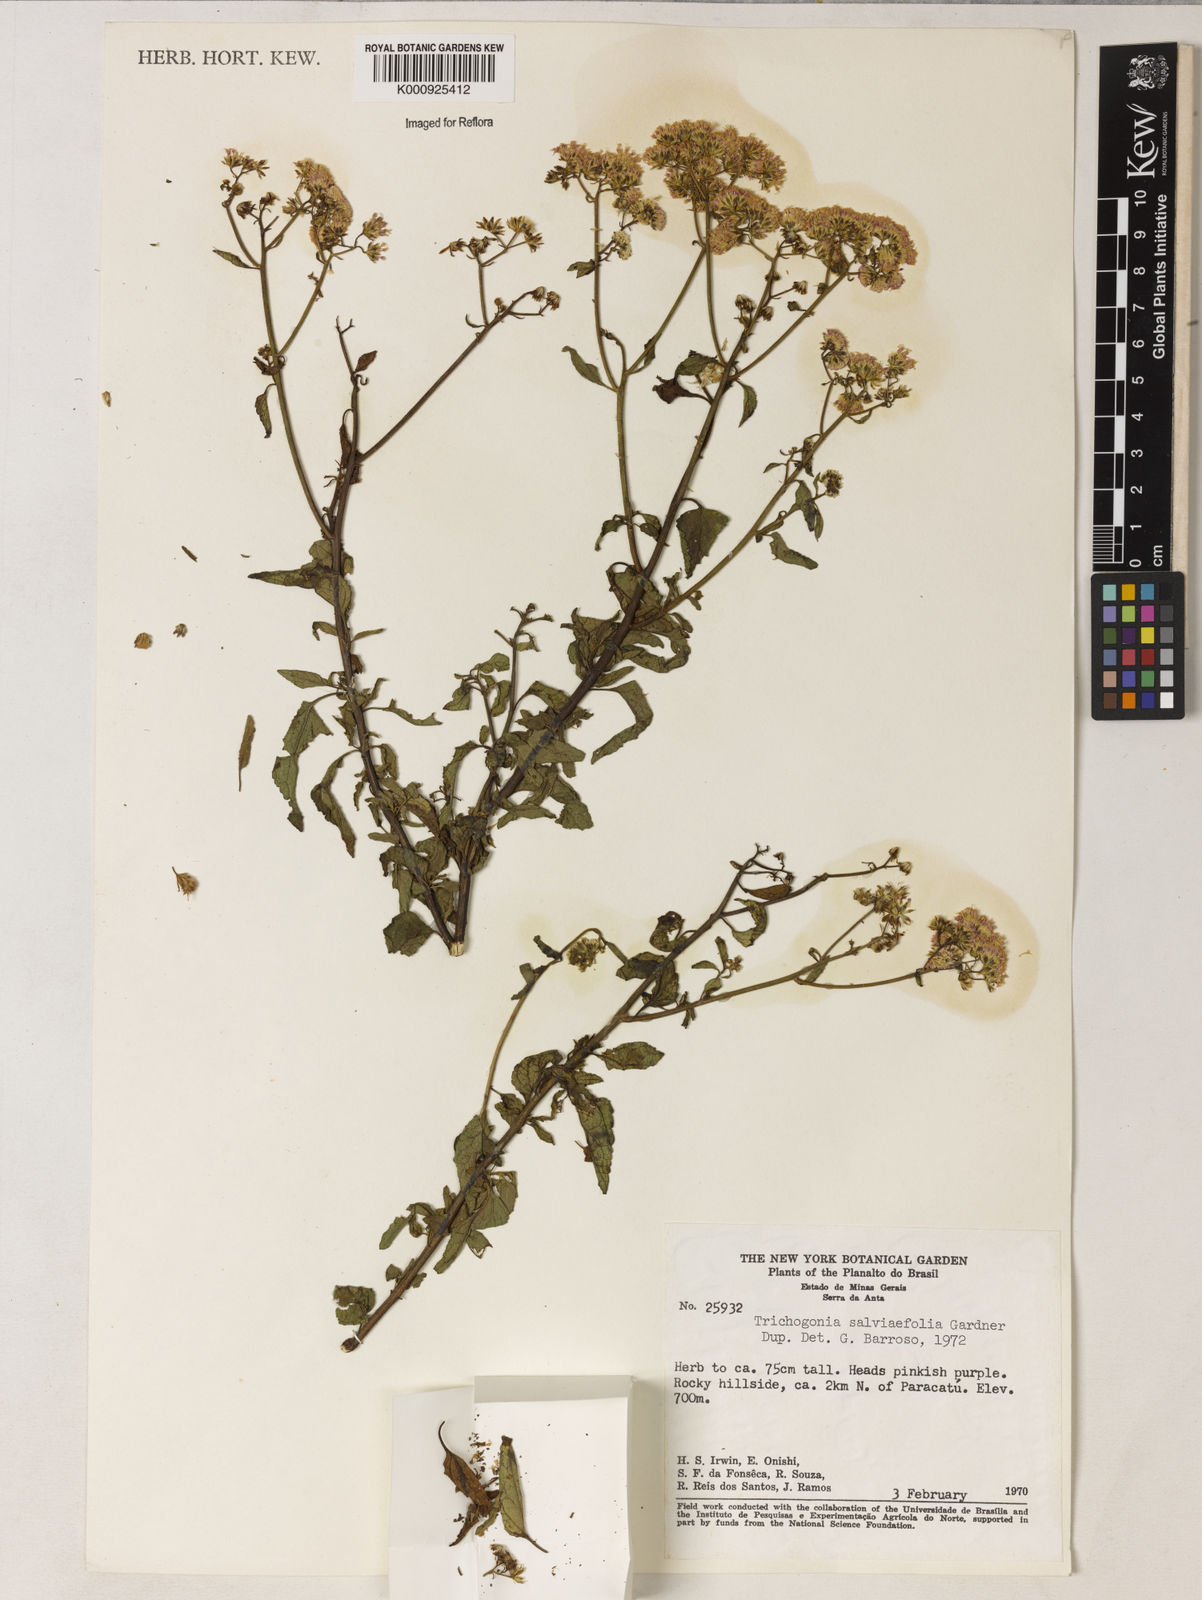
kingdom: Plantae
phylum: Tracheophyta
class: Magnoliopsida
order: Asterales
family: Asteraceae
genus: Trichogonia
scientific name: Trichogonia
